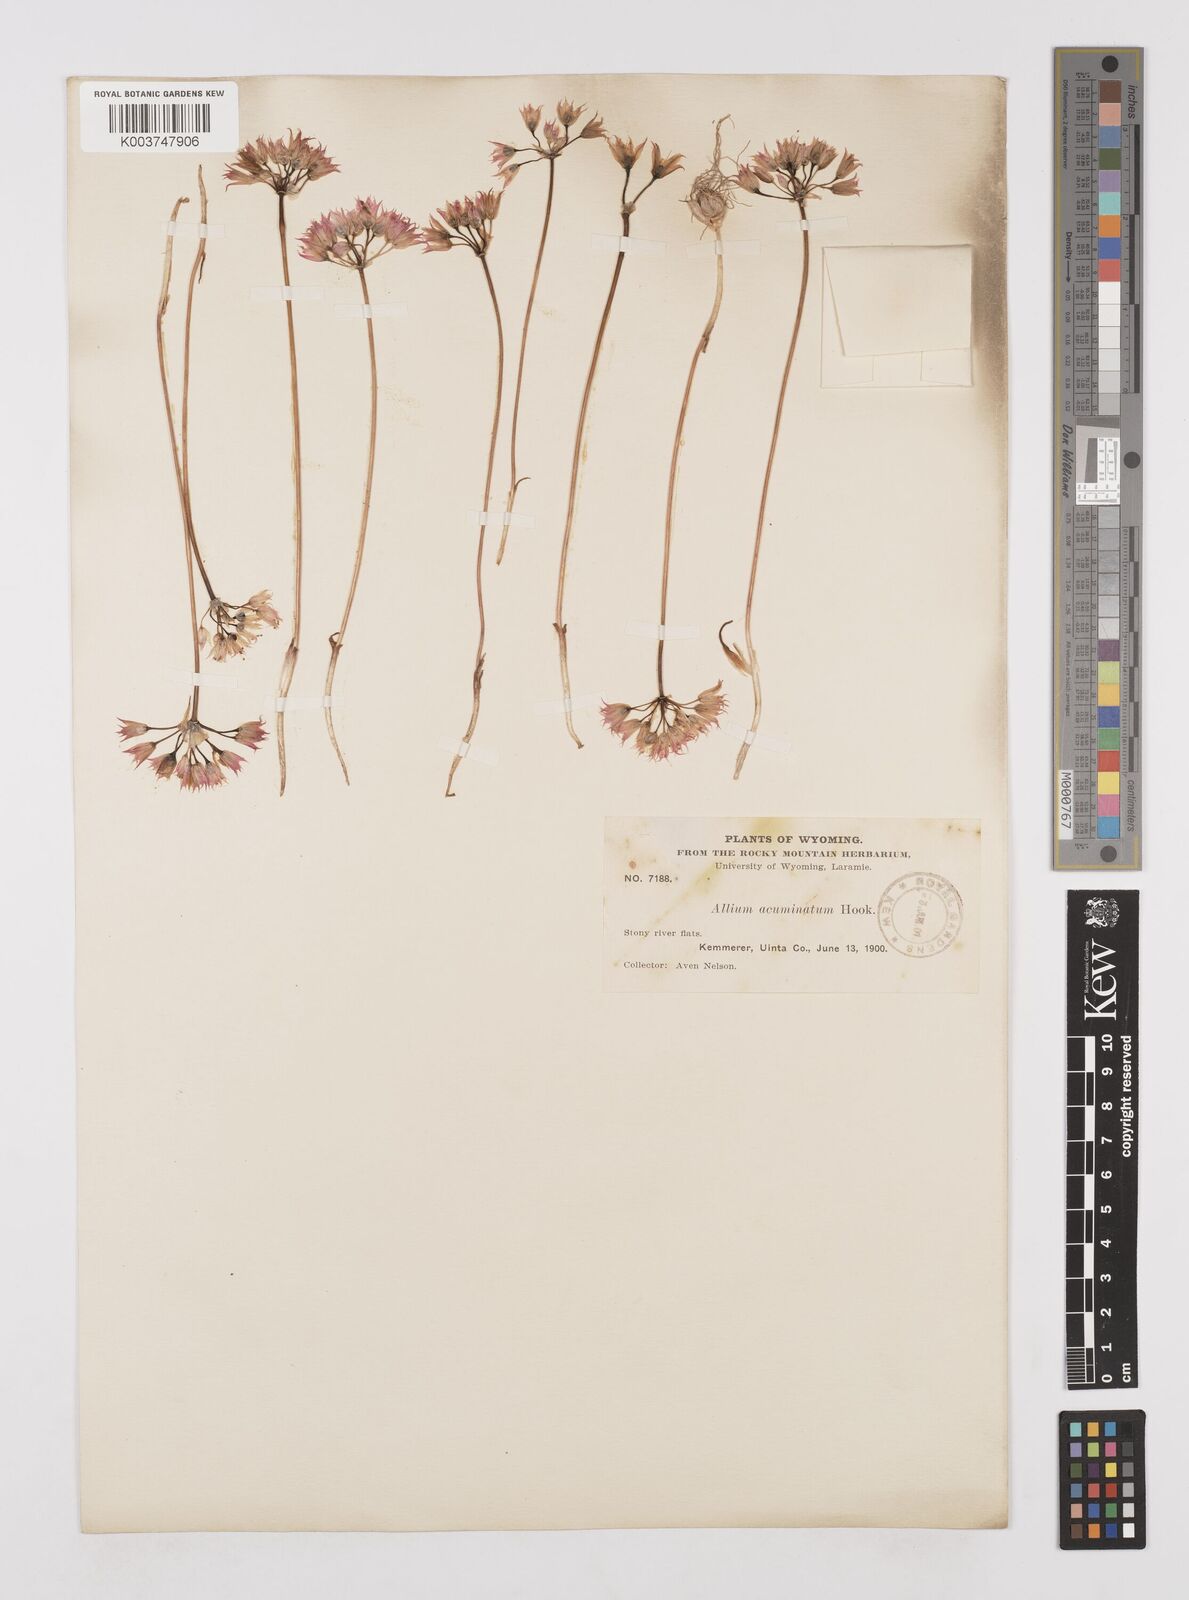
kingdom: Plantae
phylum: Tracheophyta
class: Liliopsida
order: Asparagales
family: Amaryllidaceae
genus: Allium
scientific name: Allium acuminatum
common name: Hooker's onion
